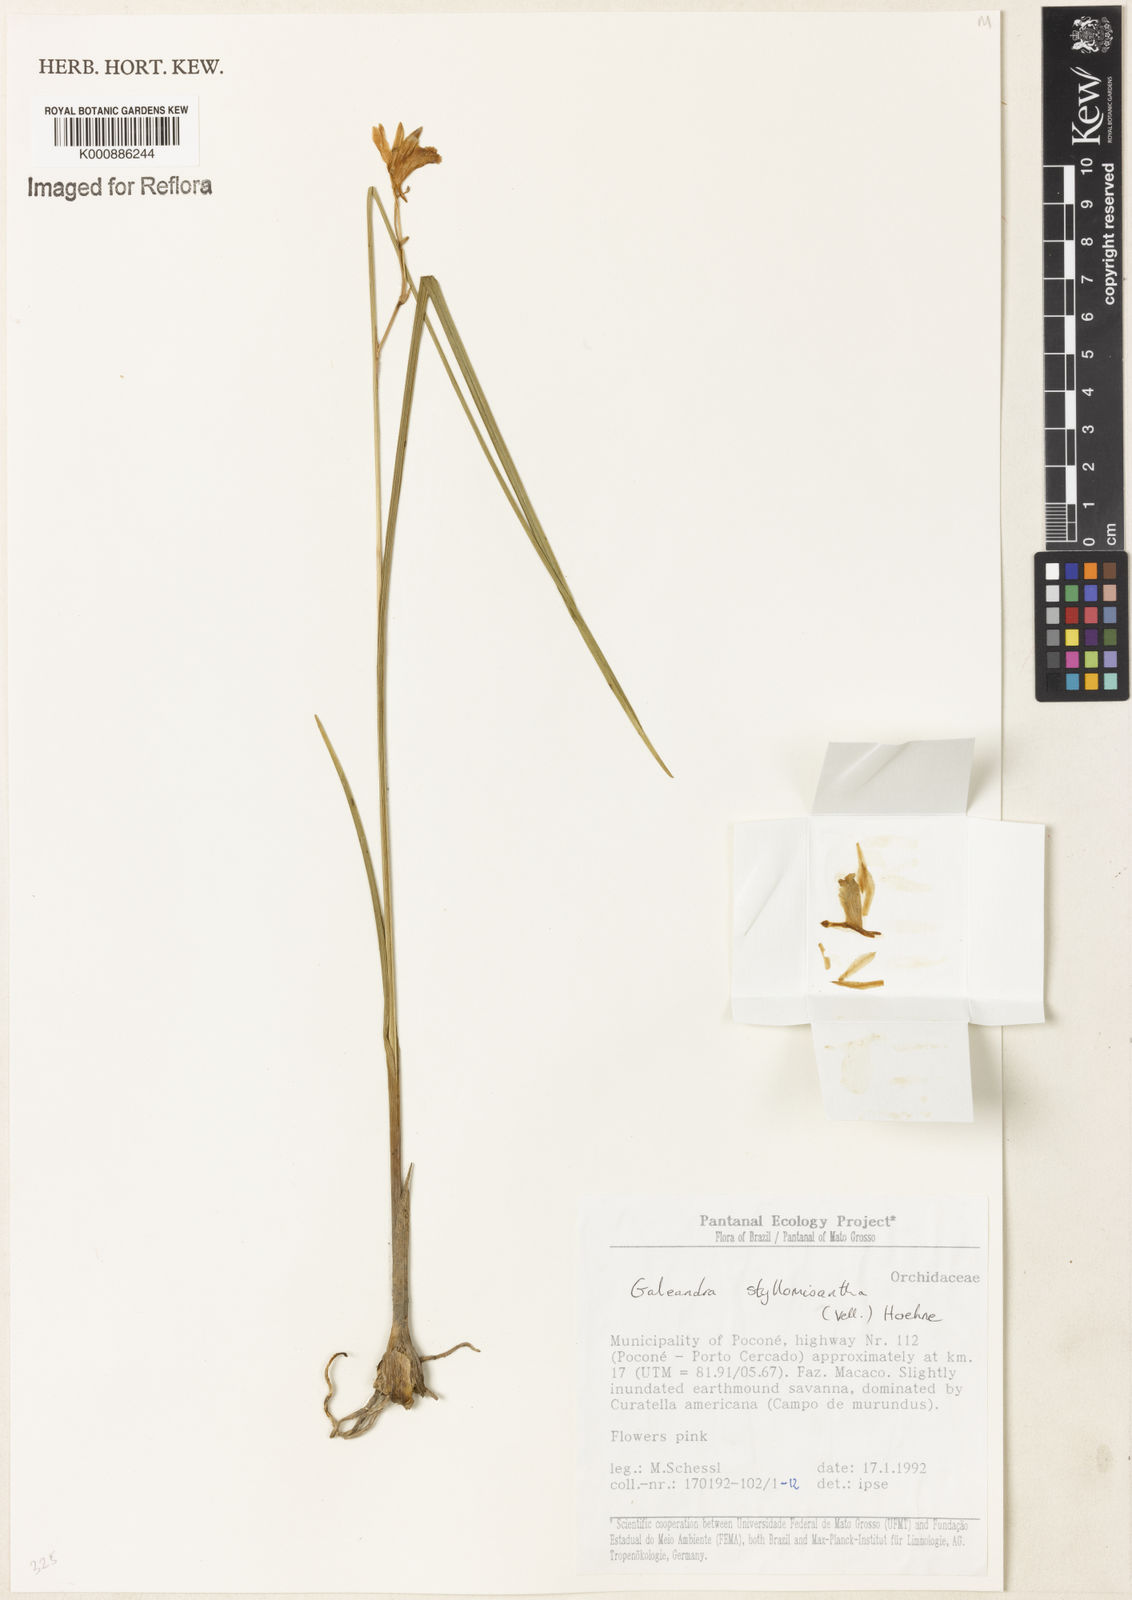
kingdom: Plantae
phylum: Tracheophyta
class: Liliopsida
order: Asparagales
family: Orchidaceae
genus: Galeandra
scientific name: Galeandra styllomisantha
